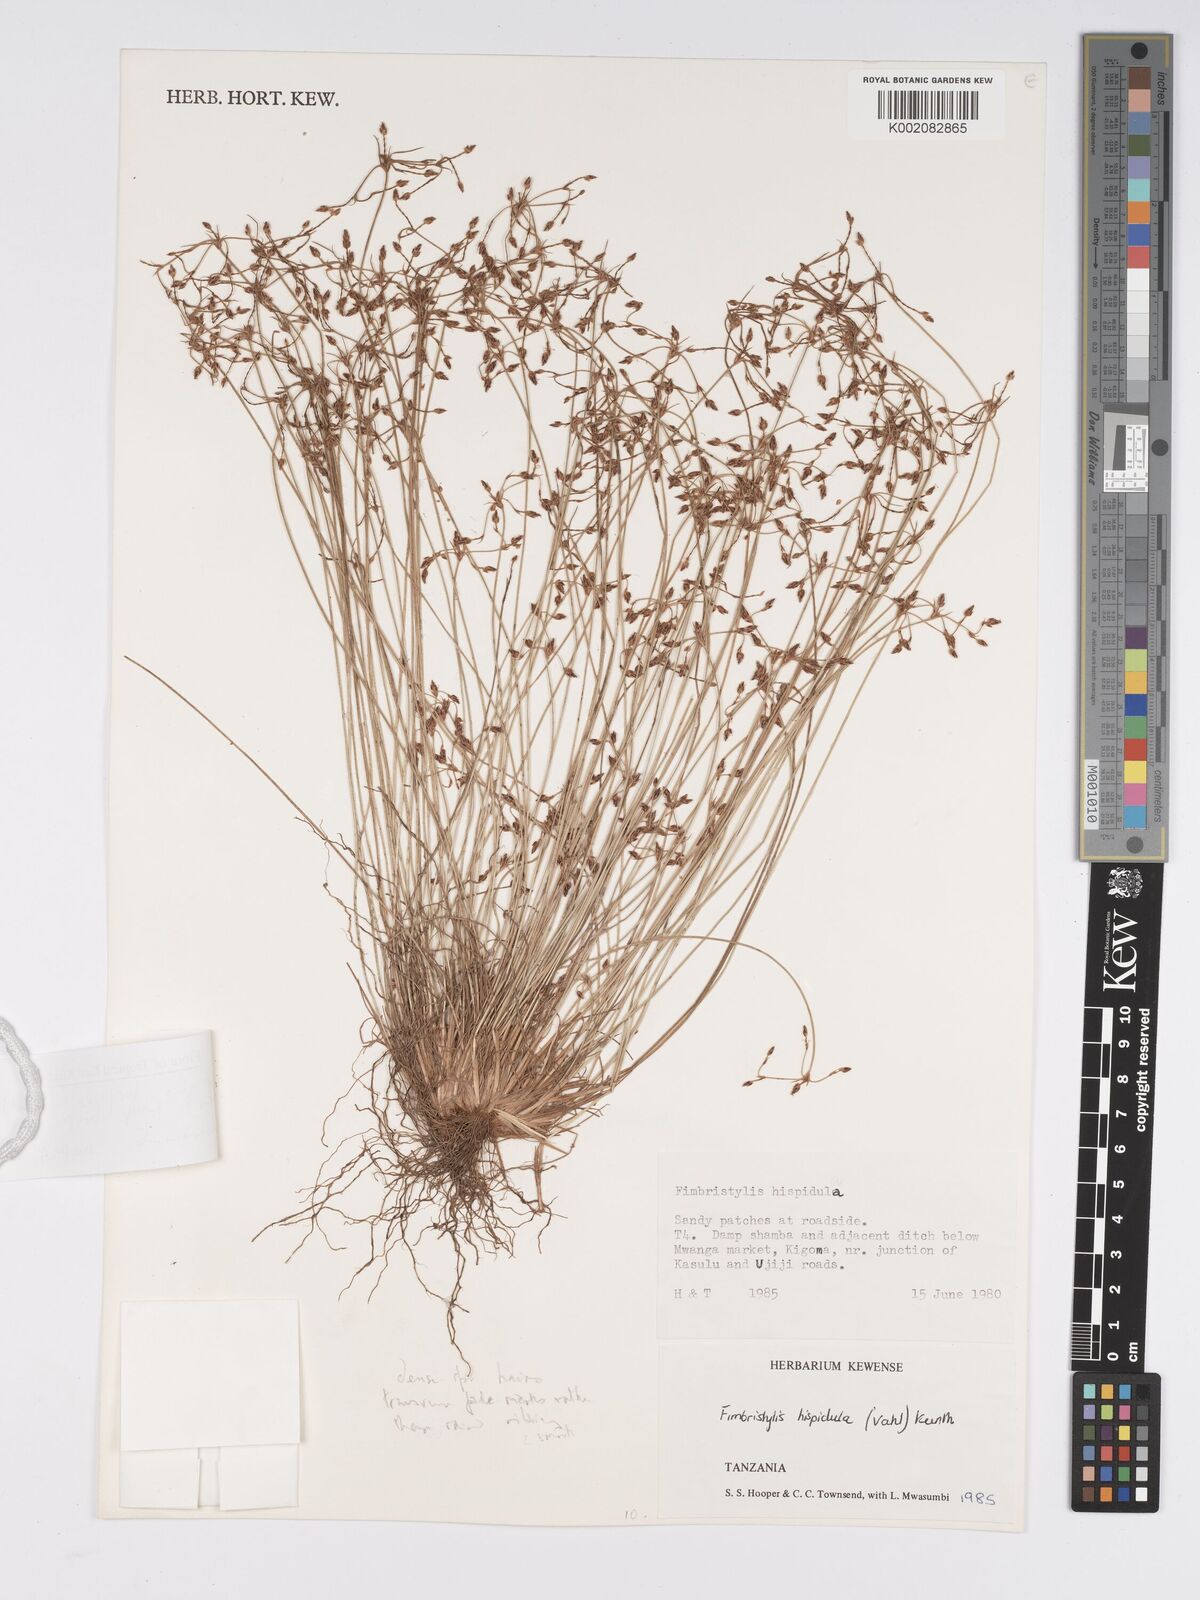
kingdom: Plantae
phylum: Tracheophyta
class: Liliopsida
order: Poales
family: Cyperaceae
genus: Bulbostylis
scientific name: Bulbostylis hispidula
